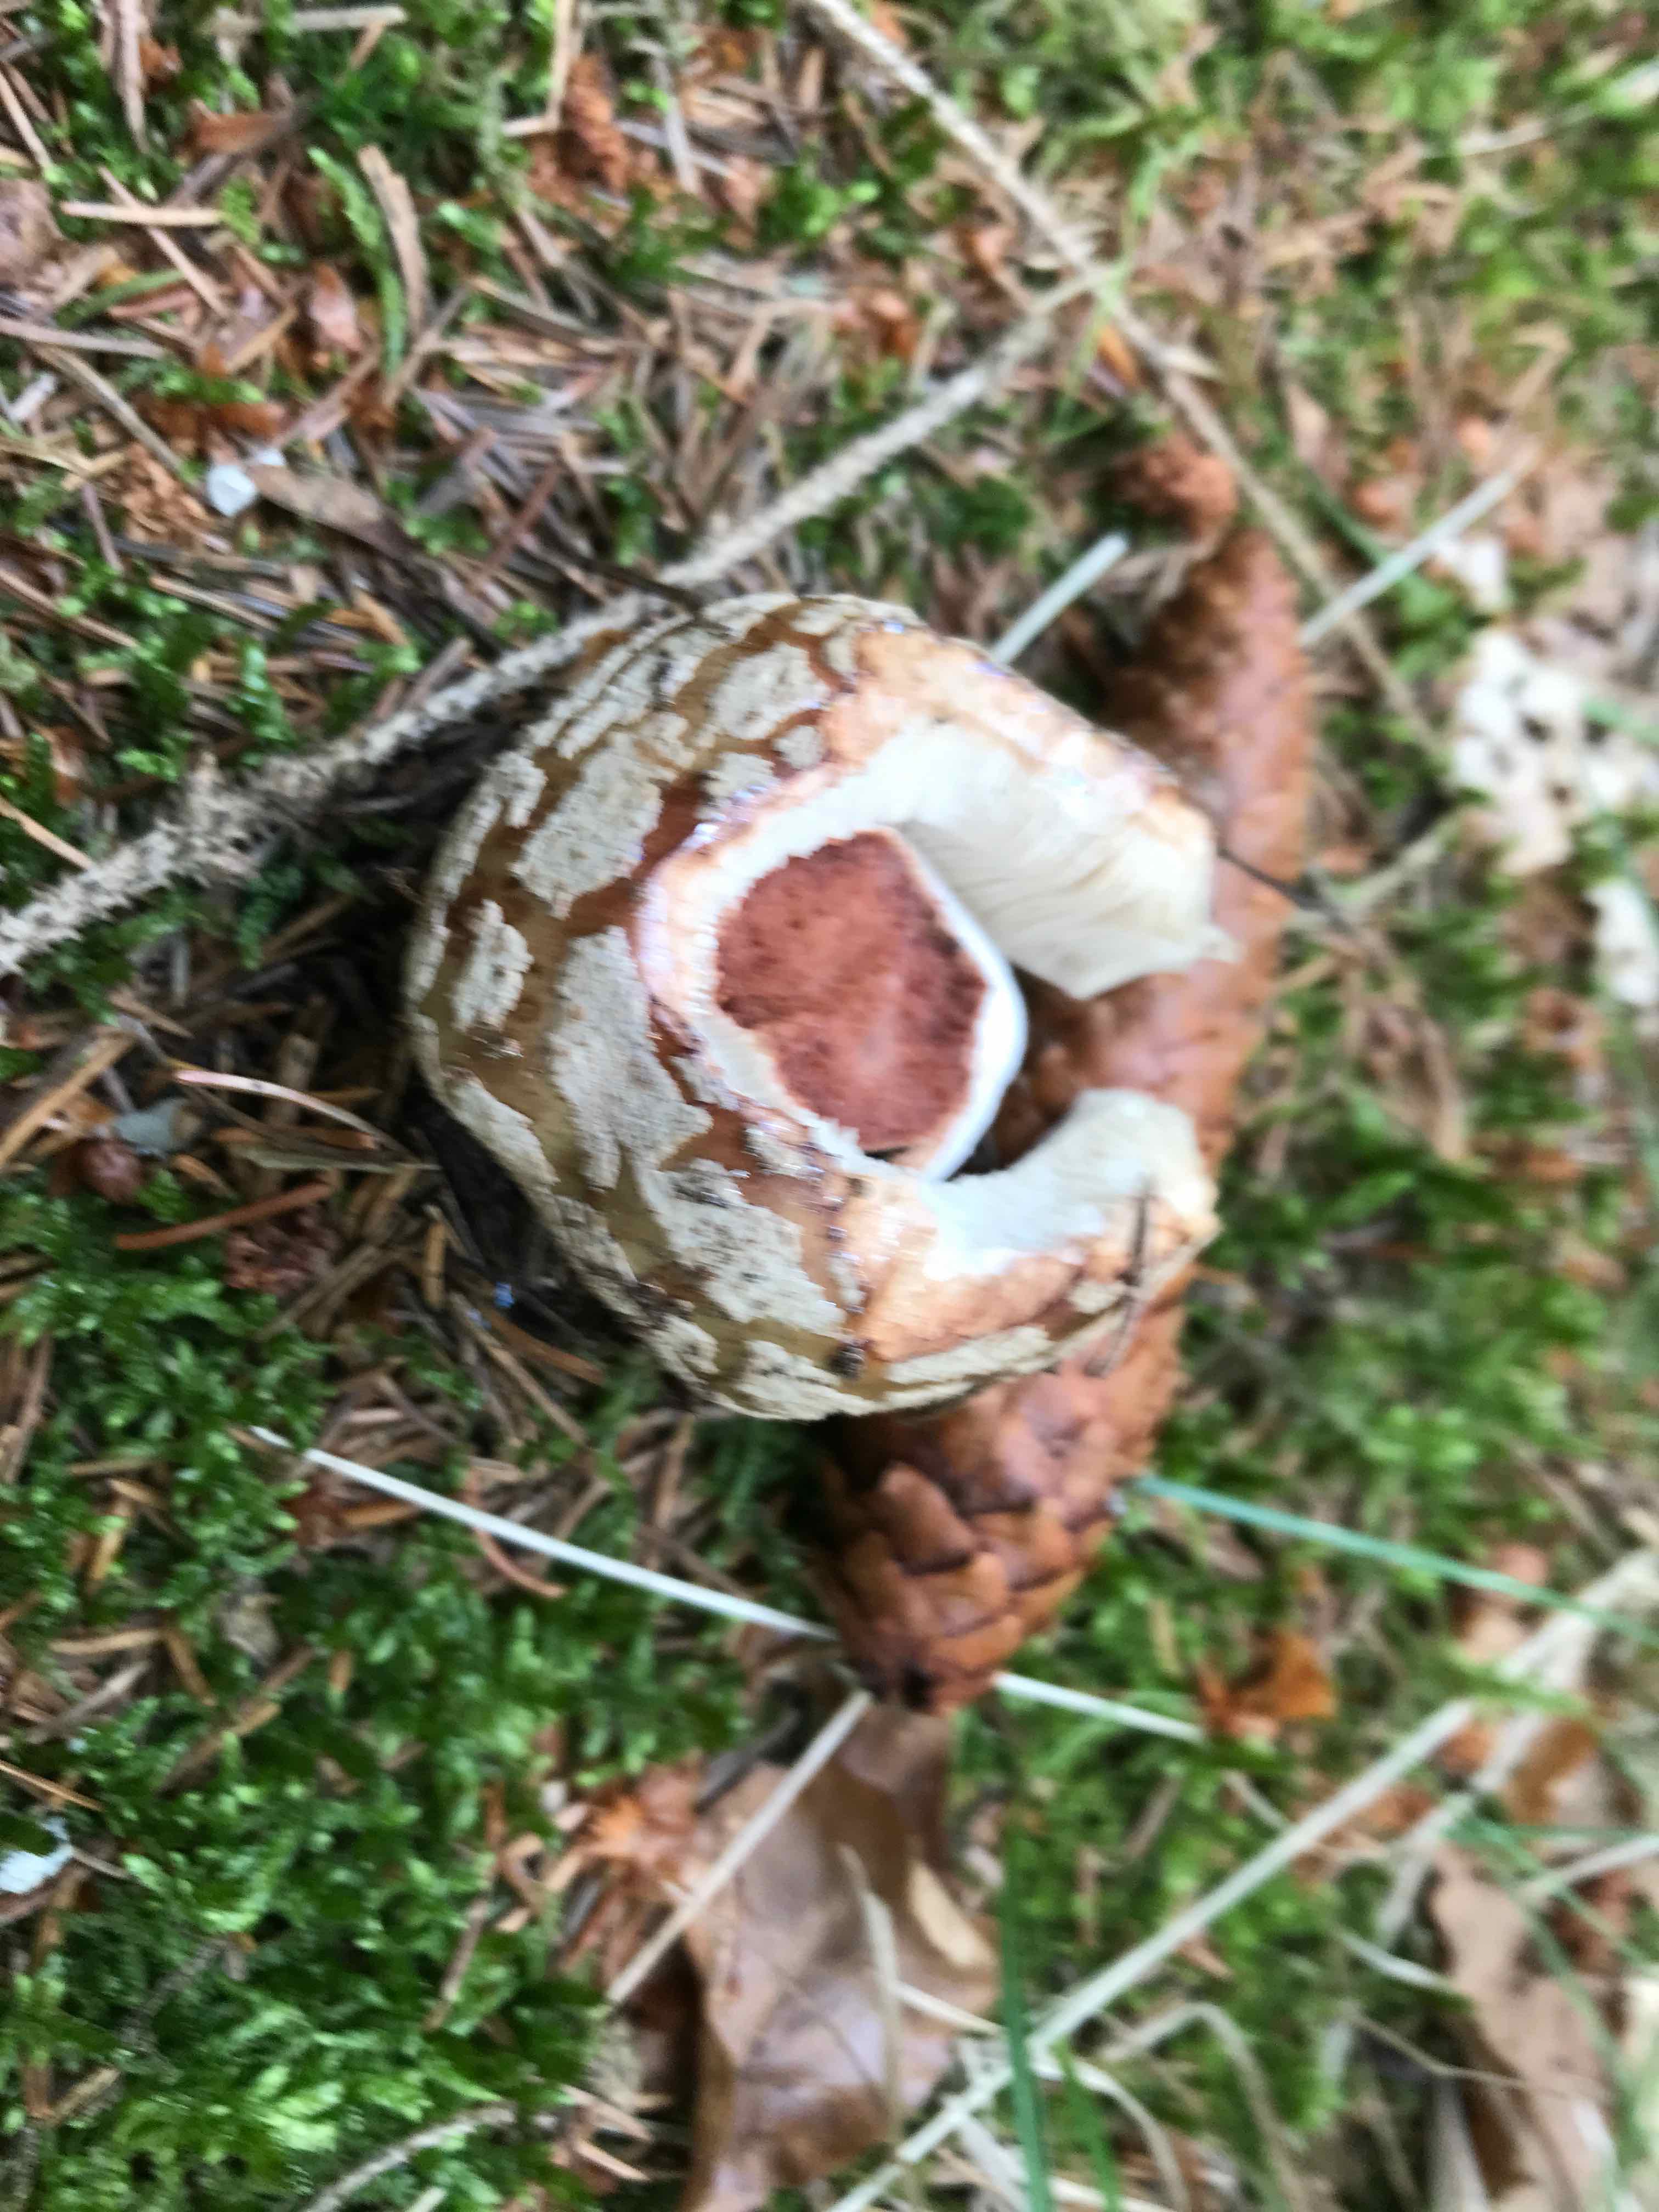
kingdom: Fungi
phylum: Basidiomycota
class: Agaricomycetes
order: Agaricales
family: Amanitaceae
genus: Amanita
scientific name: Amanita rubescens
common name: rødmende fluesvamp
